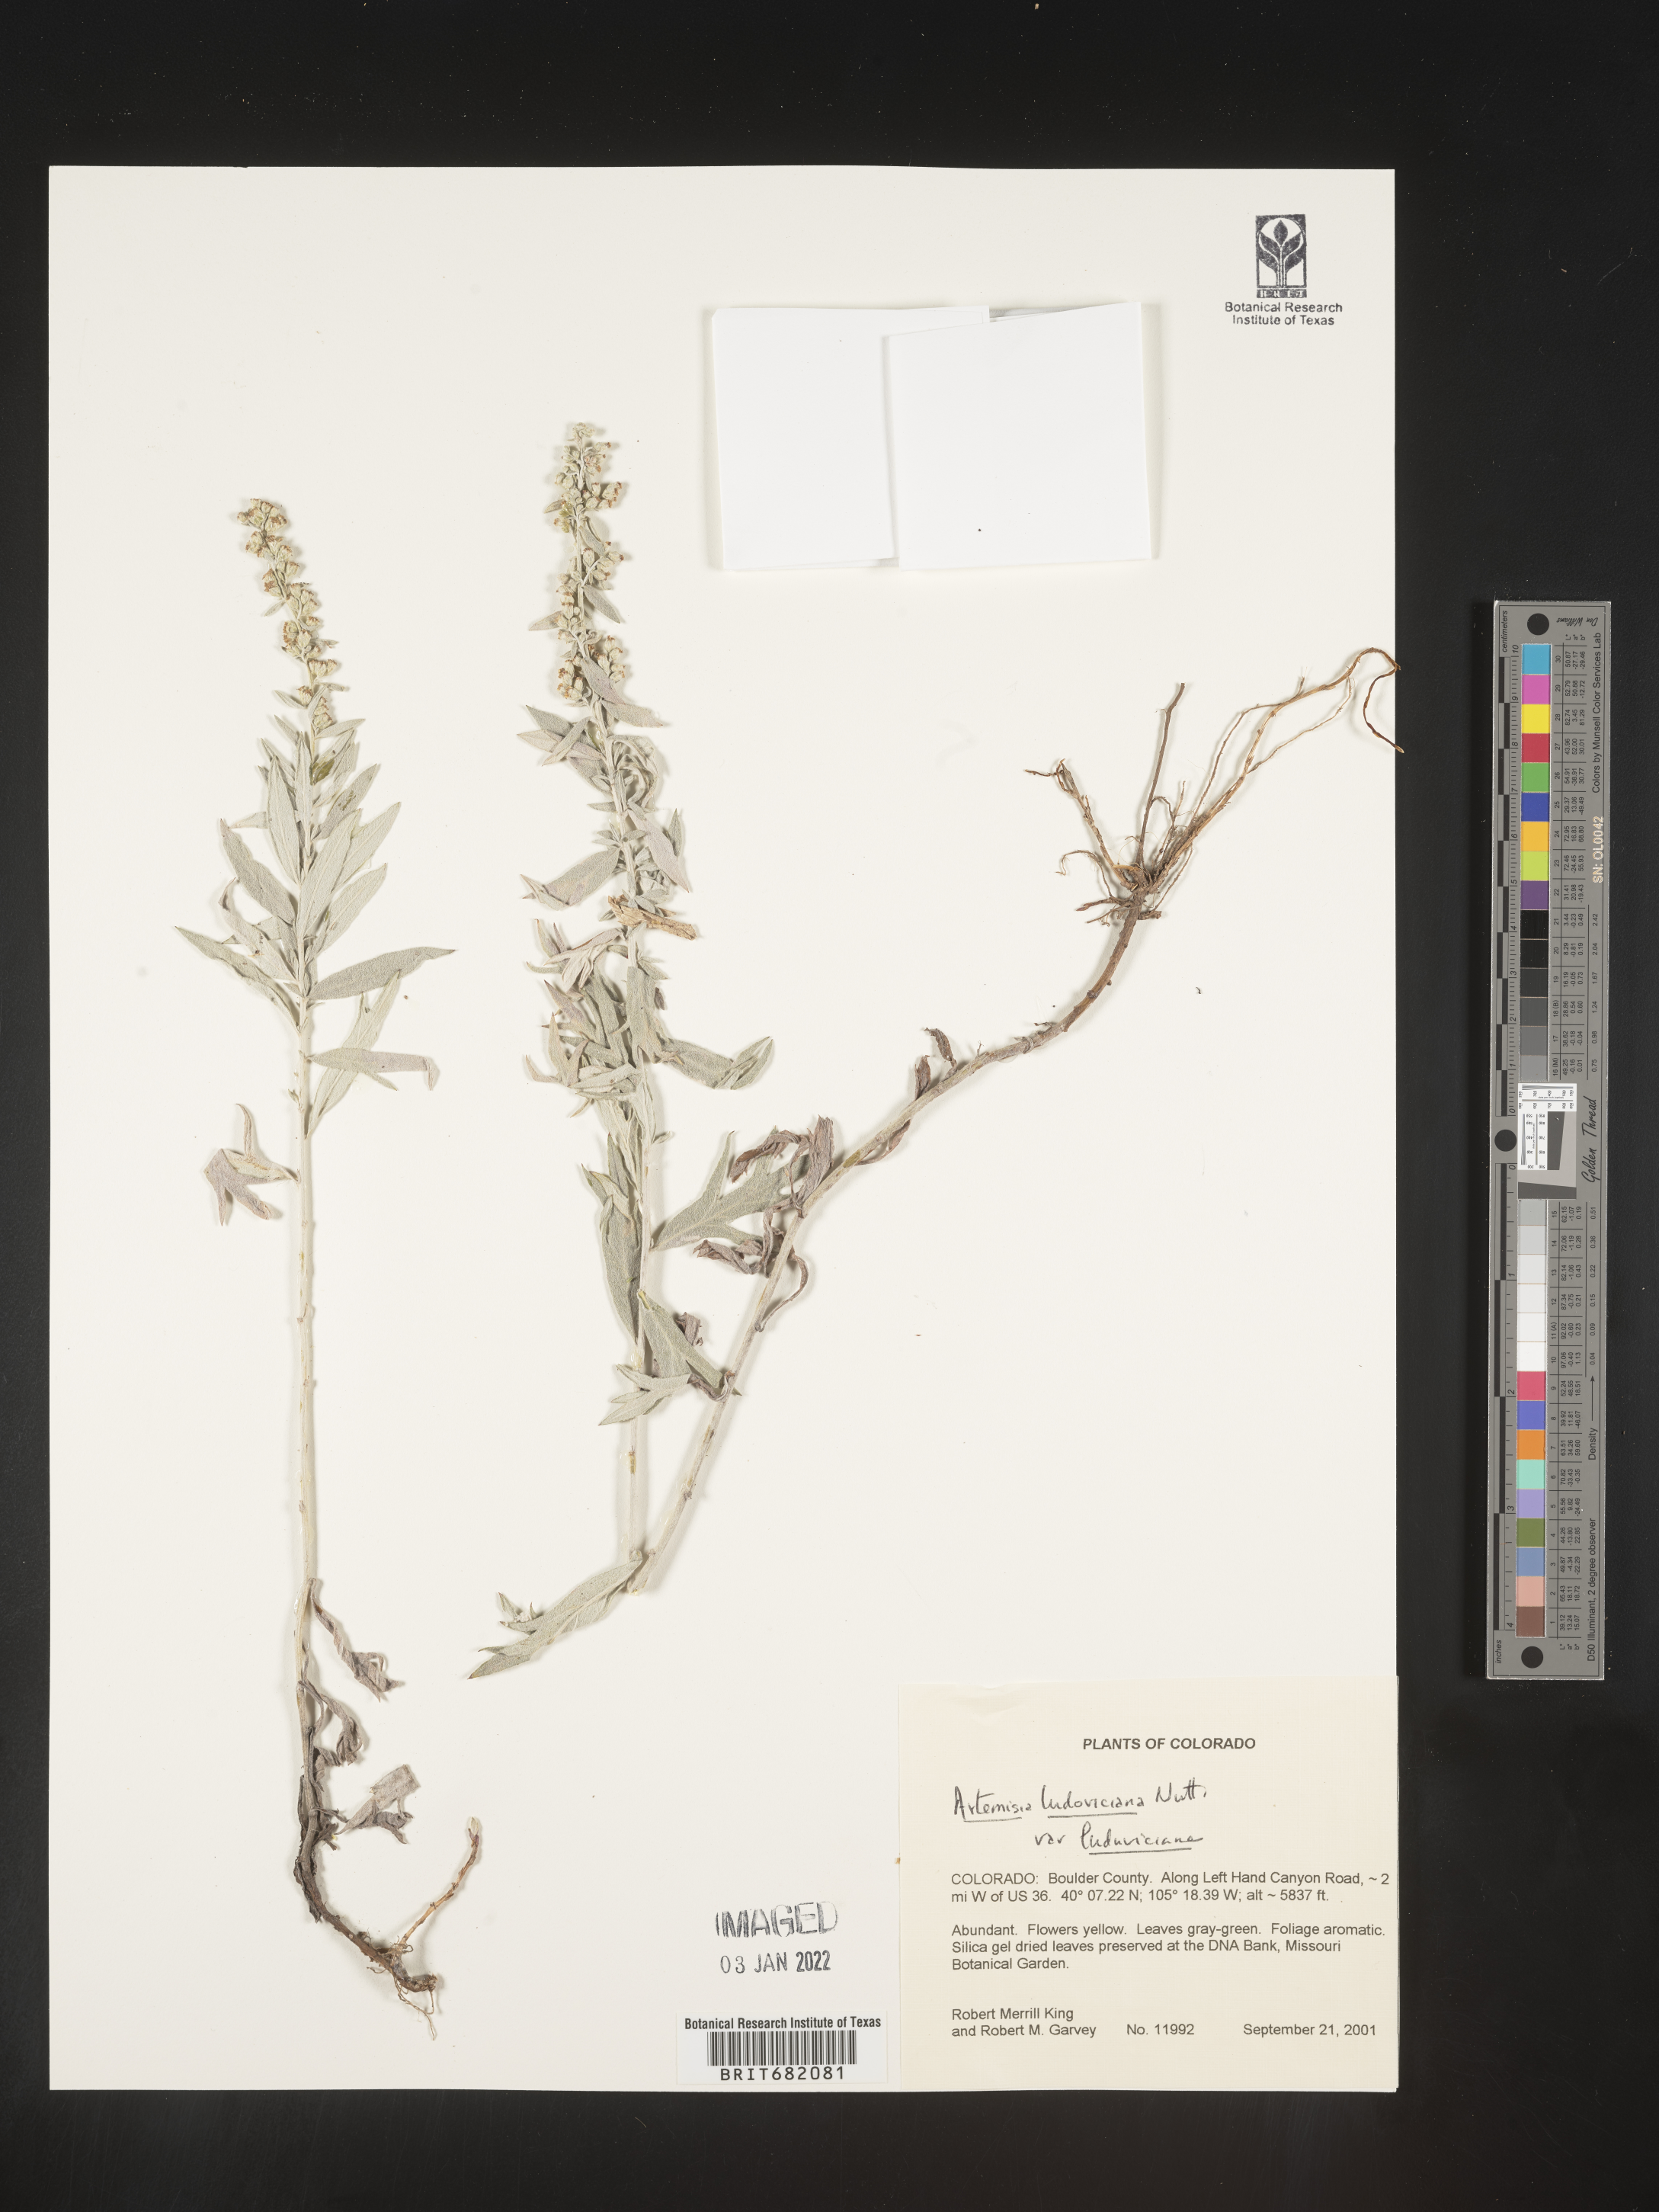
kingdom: Plantae
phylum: Tracheophyta
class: Magnoliopsida
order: Asterales
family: Asteraceae
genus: Artemisia
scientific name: Artemisia ludoviciana
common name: Western mugwort
